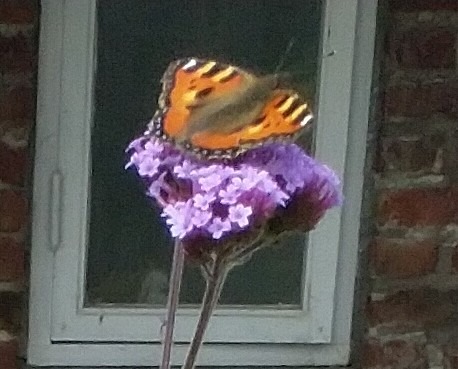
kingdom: Animalia
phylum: Arthropoda
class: Insecta
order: Lepidoptera
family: Nymphalidae
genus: Aglais
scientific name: Aglais urticae
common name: Nældens takvinge
